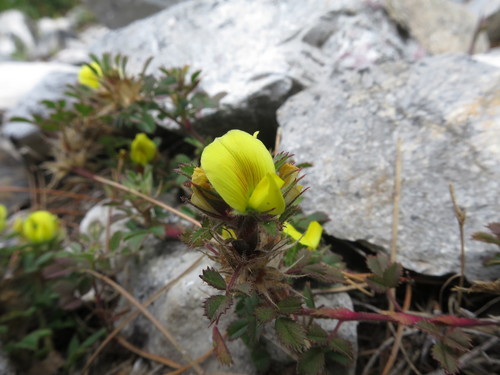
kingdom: Plantae
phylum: Tracheophyta
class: Magnoliopsida
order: Fabales
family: Fabaceae
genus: Ononis
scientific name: Ononis pusilla
